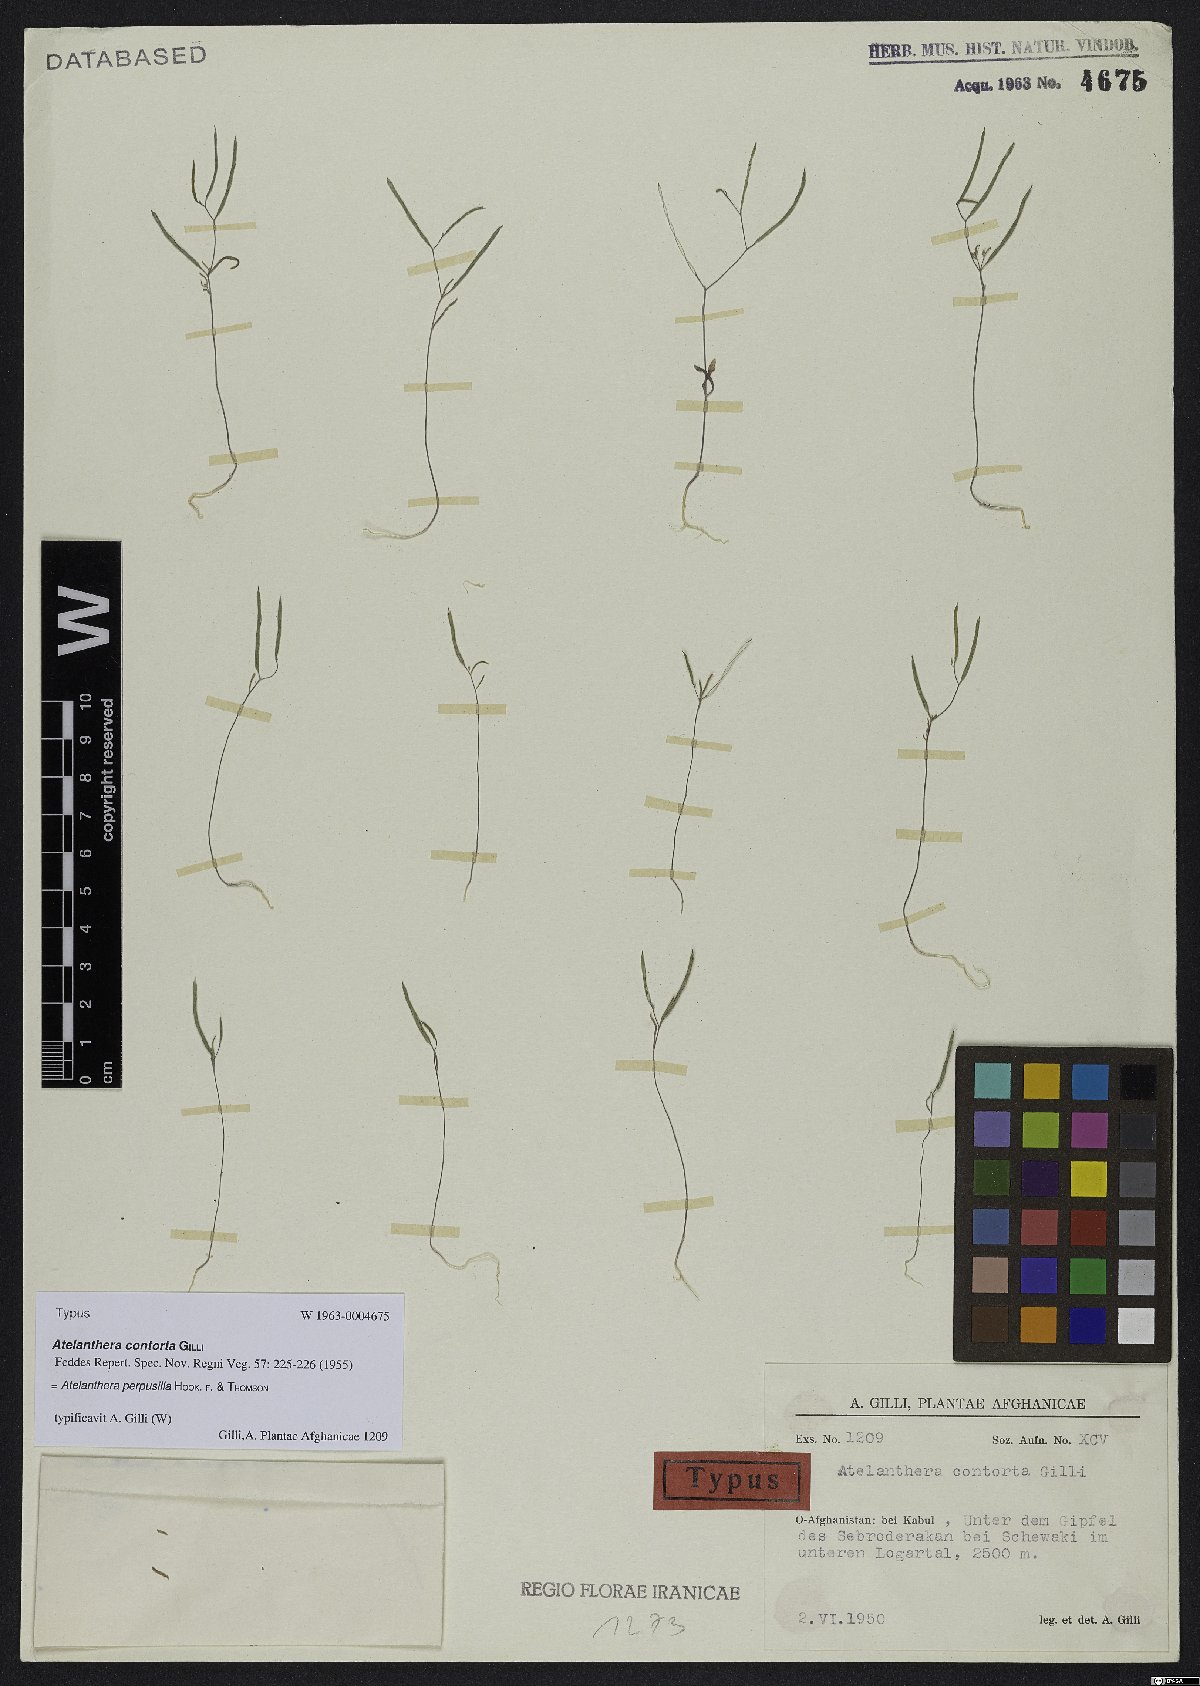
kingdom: Plantae
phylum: Tracheophyta
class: Magnoliopsida
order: Brassicales
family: Brassicaceae
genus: Atelanthera
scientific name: Atelanthera perpusilla
